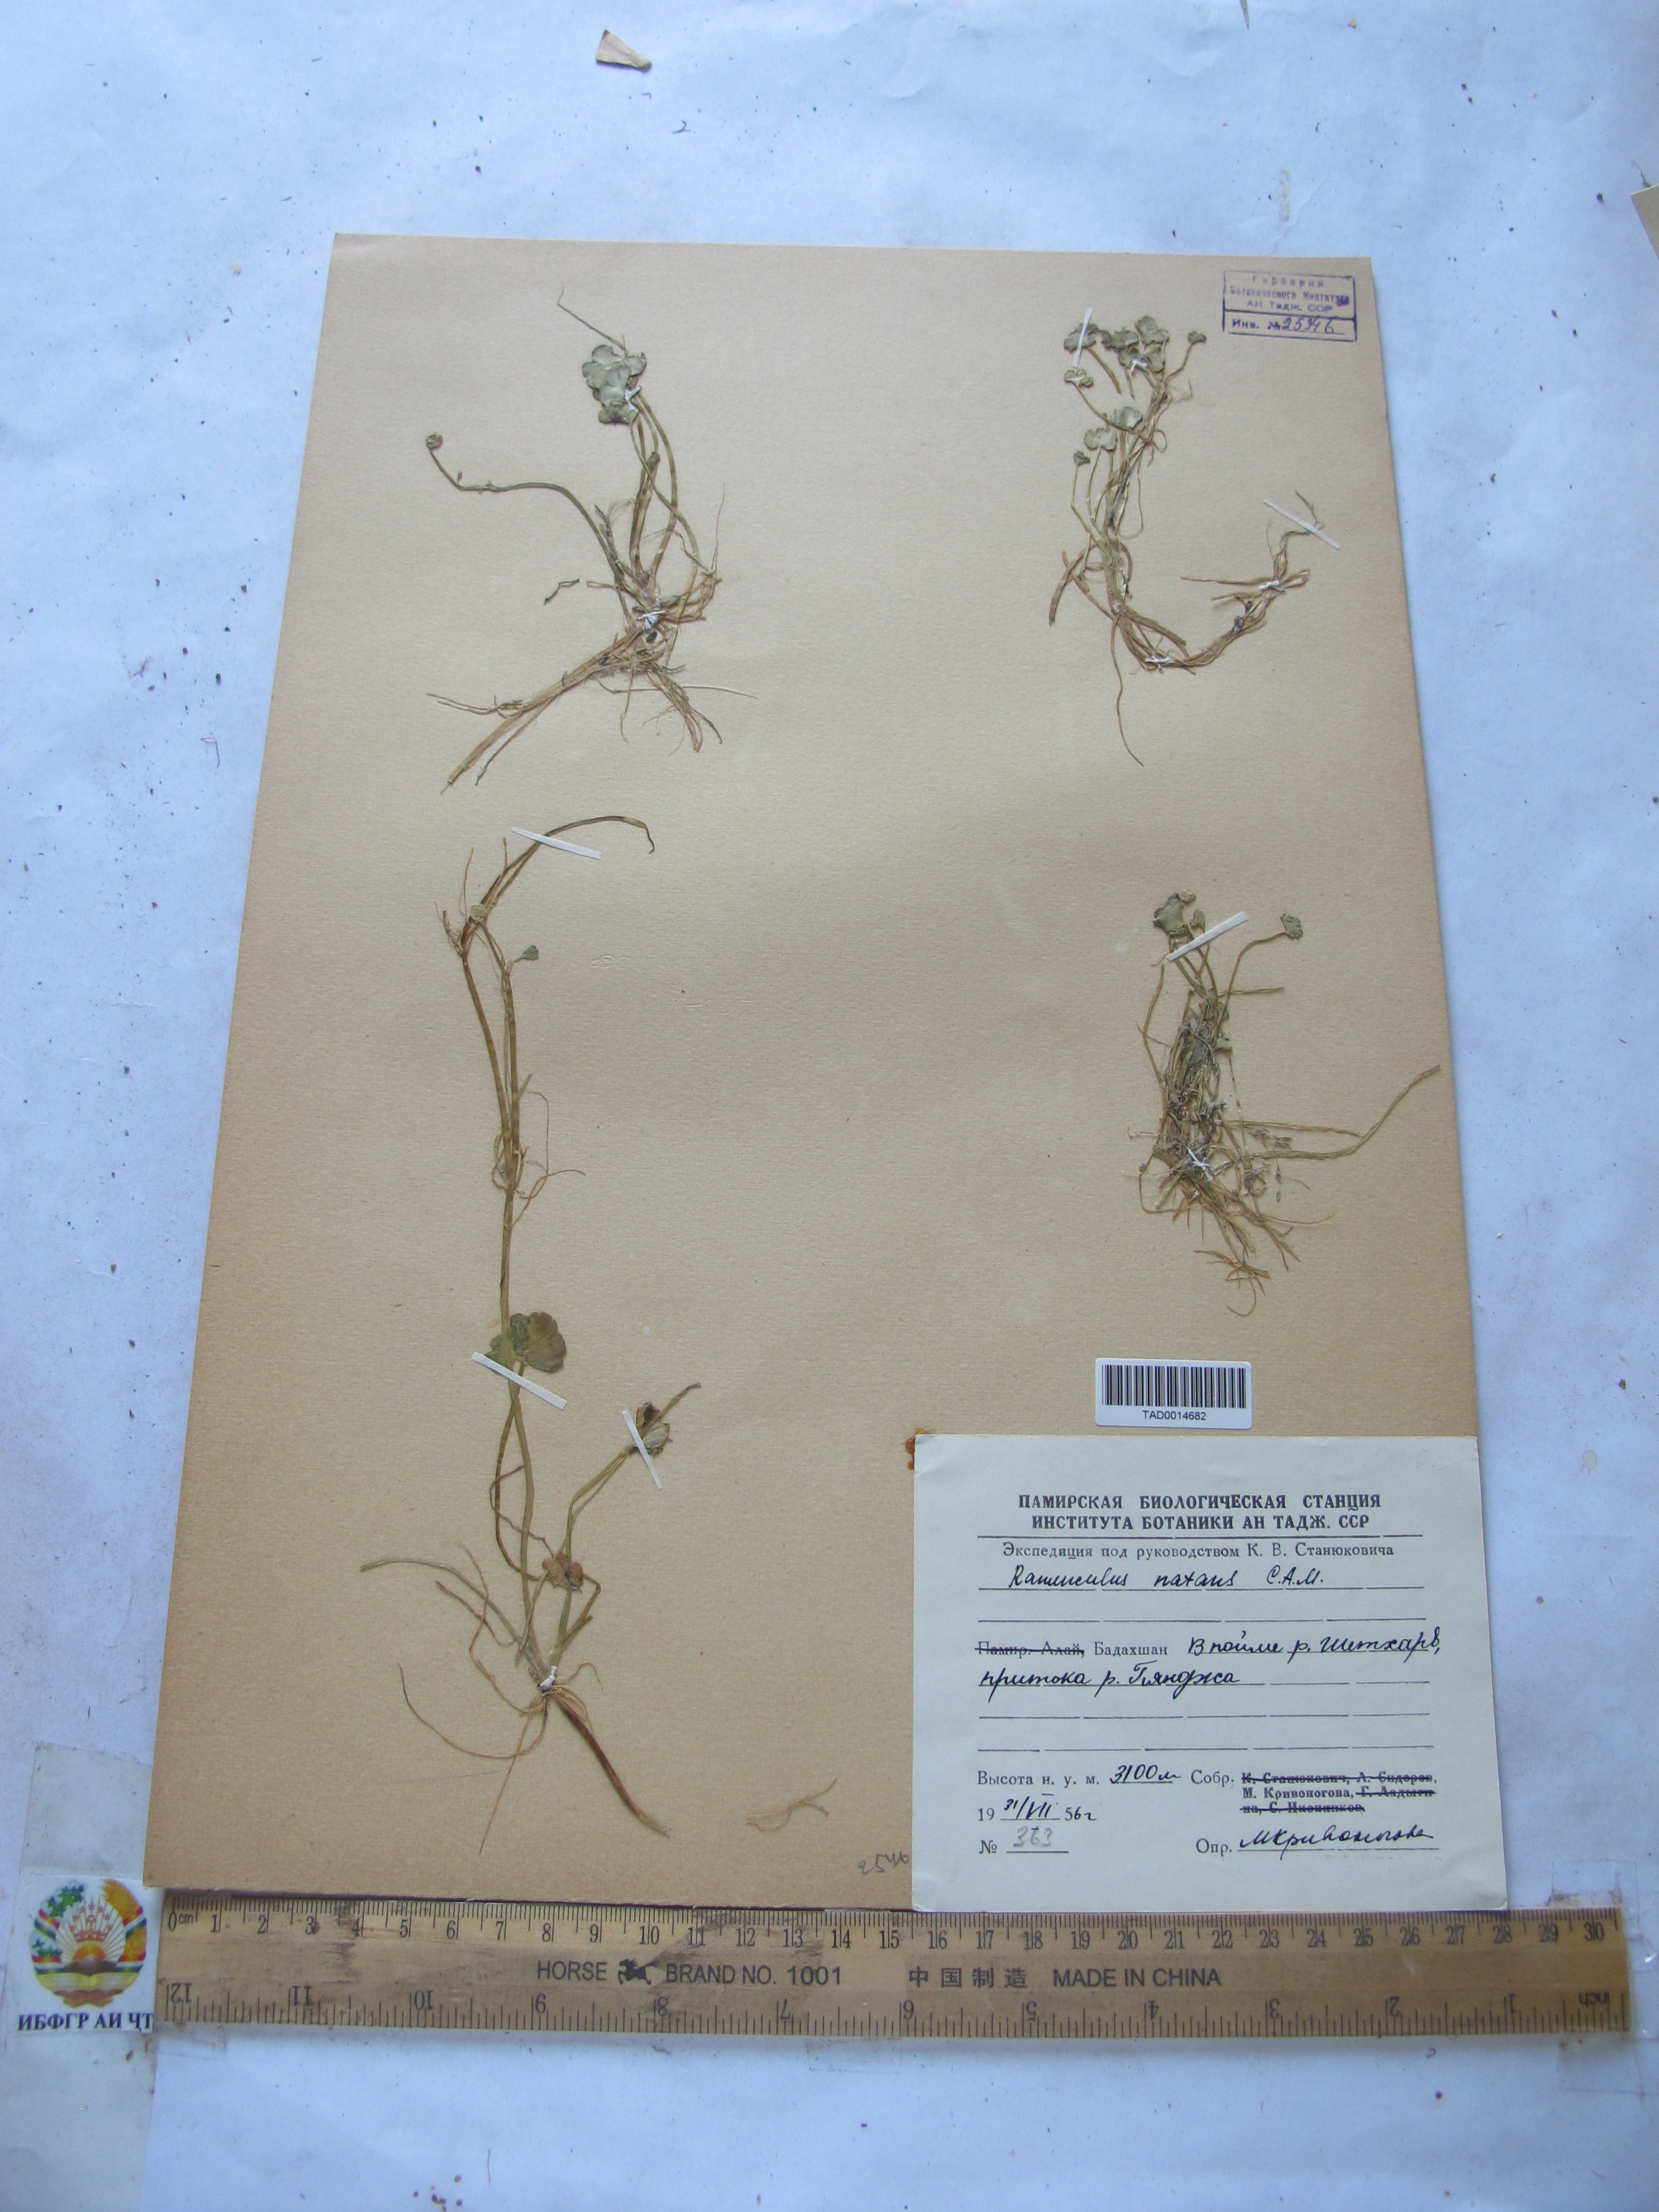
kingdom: Plantae
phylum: Tracheophyta
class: Magnoliopsida
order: Ranunculales
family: Ranunculaceae
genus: Ranunculus
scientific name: Ranunculus natans
